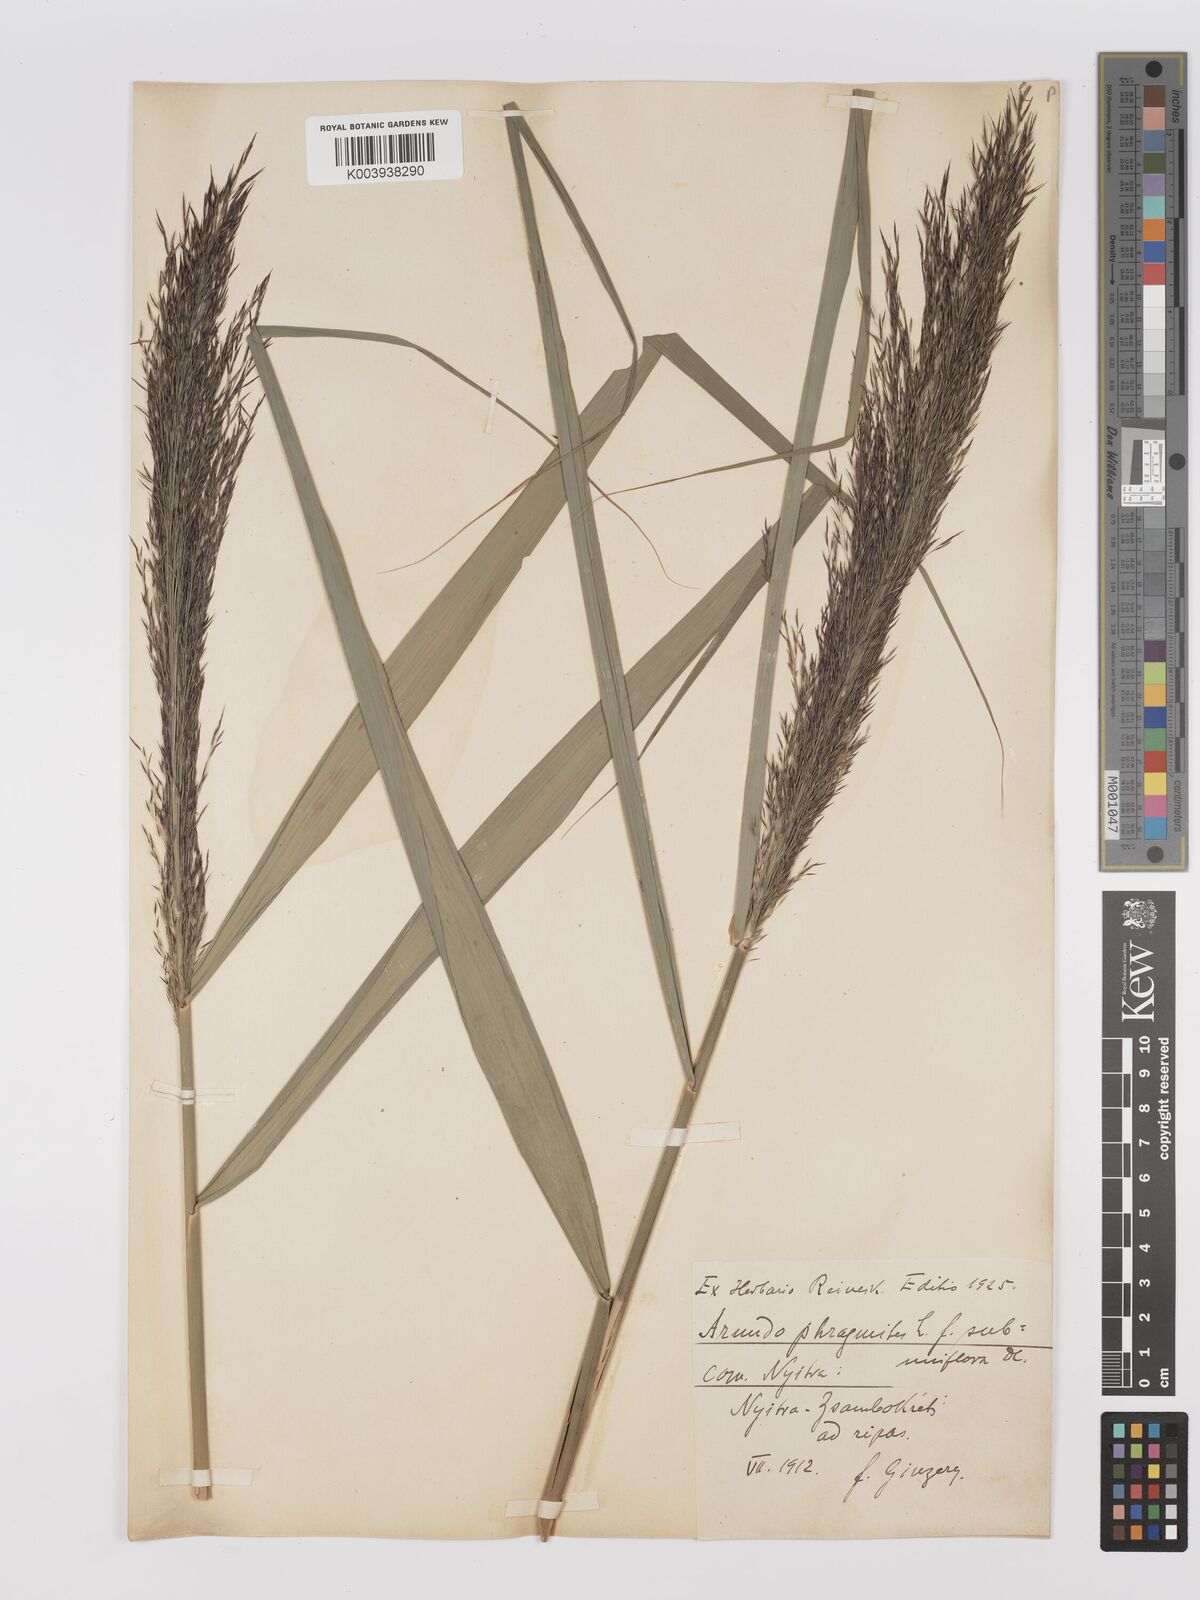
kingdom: Plantae
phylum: Tracheophyta
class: Liliopsida
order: Poales
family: Poaceae
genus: Phragmites
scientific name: Phragmites australis
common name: Common reed
